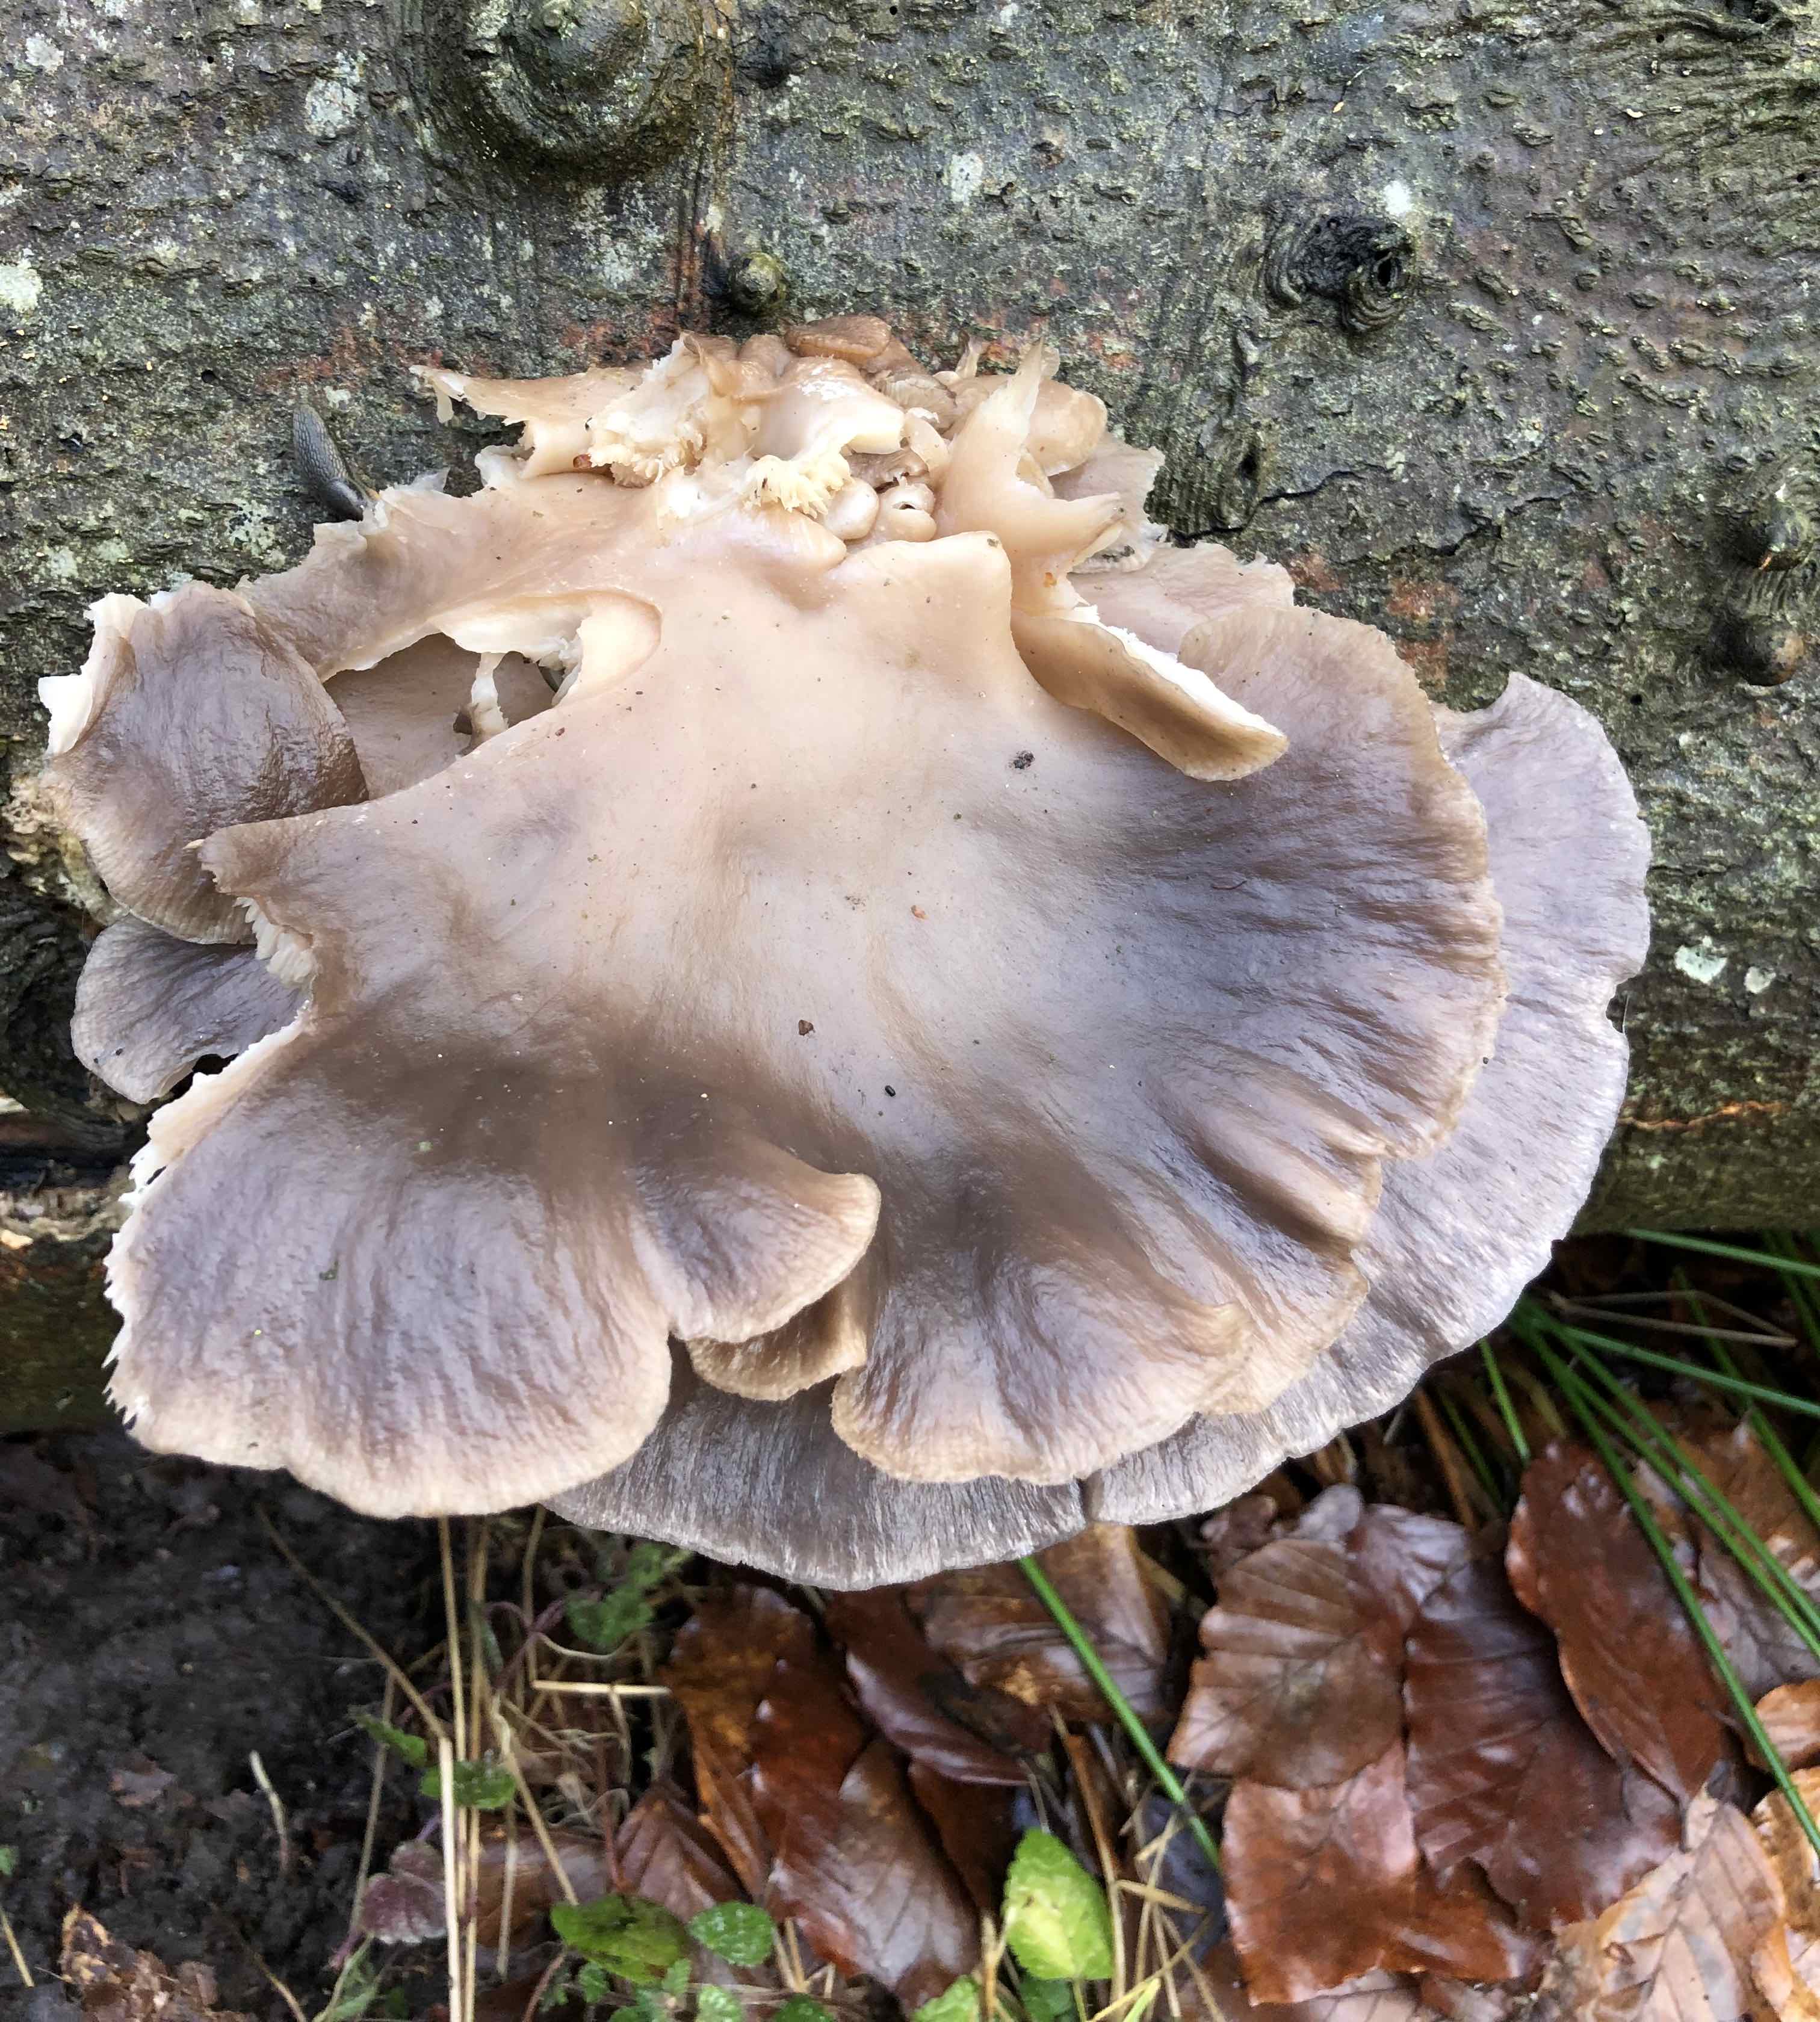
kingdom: Fungi
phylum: Basidiomycota
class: Agaricomycetes
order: Agaricales
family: Pleurotaceae
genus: Pleurotus
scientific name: Pleurotus ostreatus
